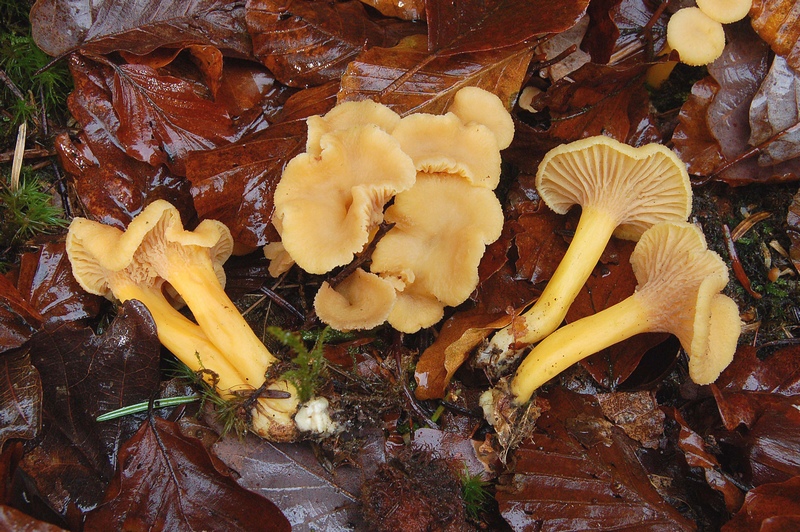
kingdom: Fungi
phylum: Basidiomycota
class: Agaricomycetes
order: Cantharellales
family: Hydnaceae
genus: Craterellus
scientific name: Craterellus tubaeformis
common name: tragt-kantarel
